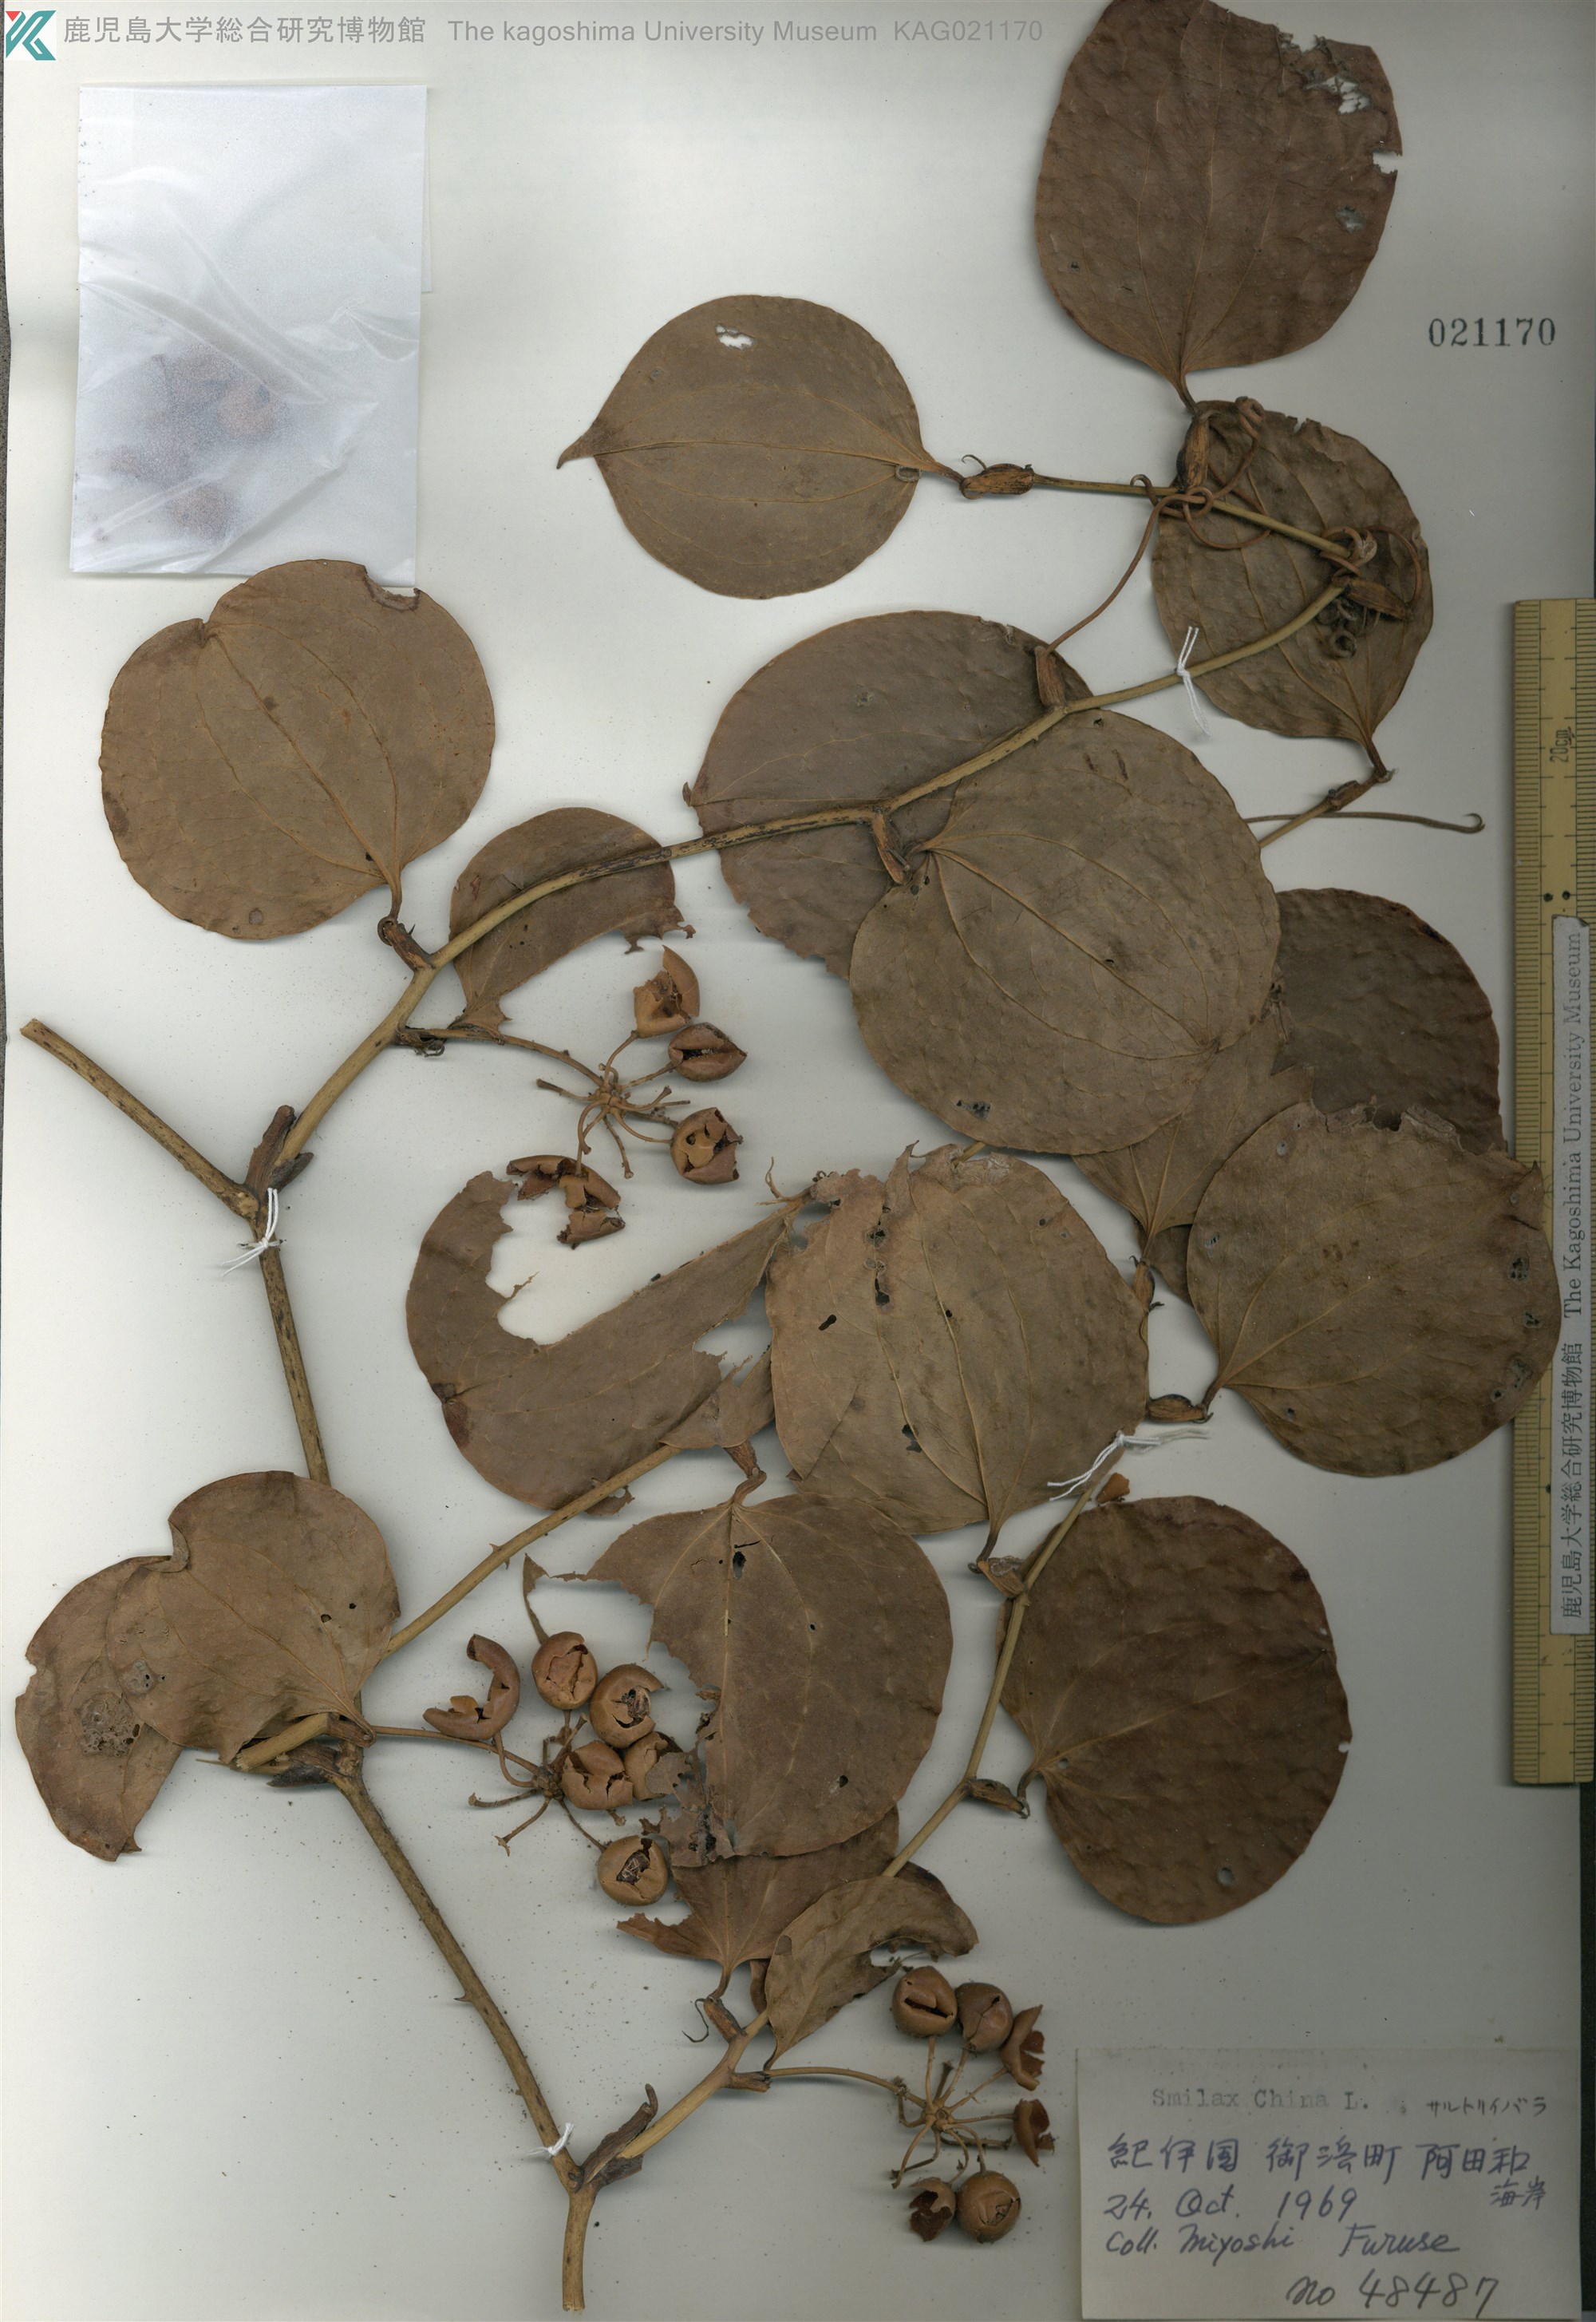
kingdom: Plantae
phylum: Tracheophyta
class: Liliopsida
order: Liliales
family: Smilacaceae
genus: Smilax
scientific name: Smilax china
